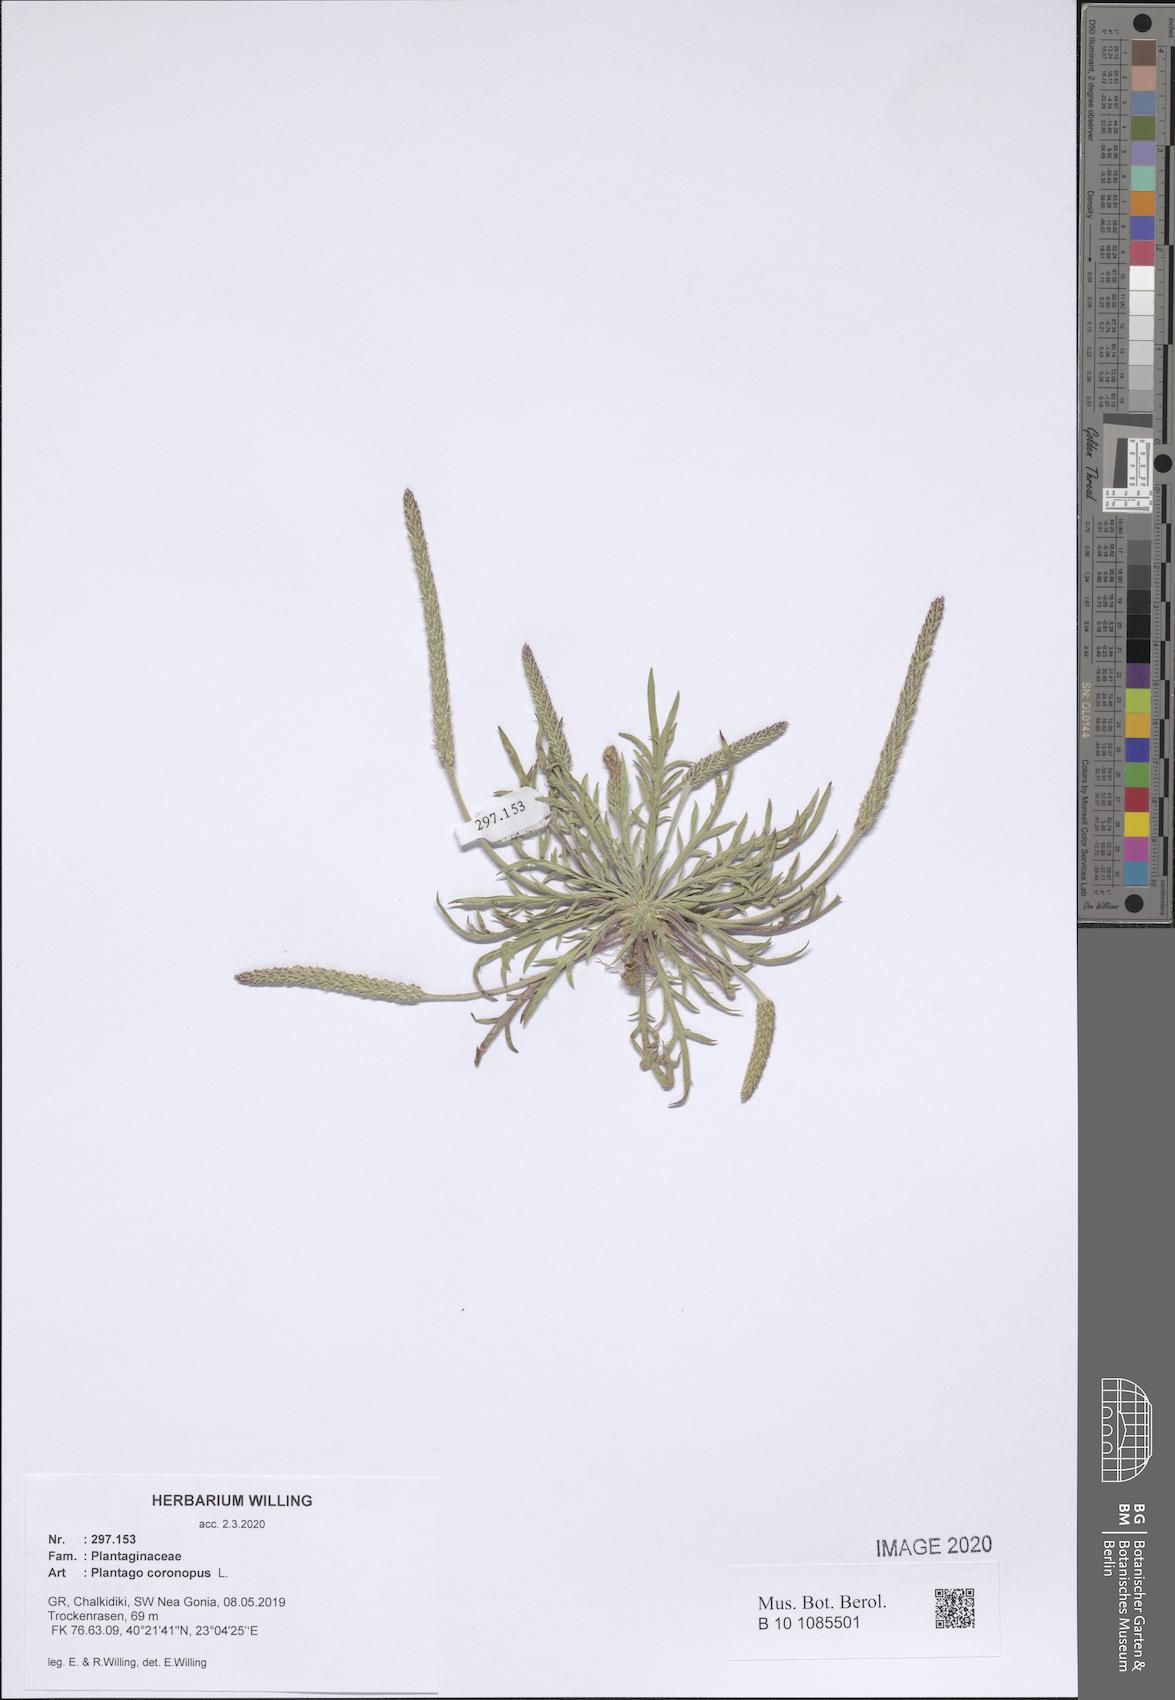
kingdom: Plantae
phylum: Tracheophyta
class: Magnoliopsida
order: Lamiales
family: Plantaginaceae
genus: Plantago
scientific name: Plantago coronopus
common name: Buck's-horn plantain
